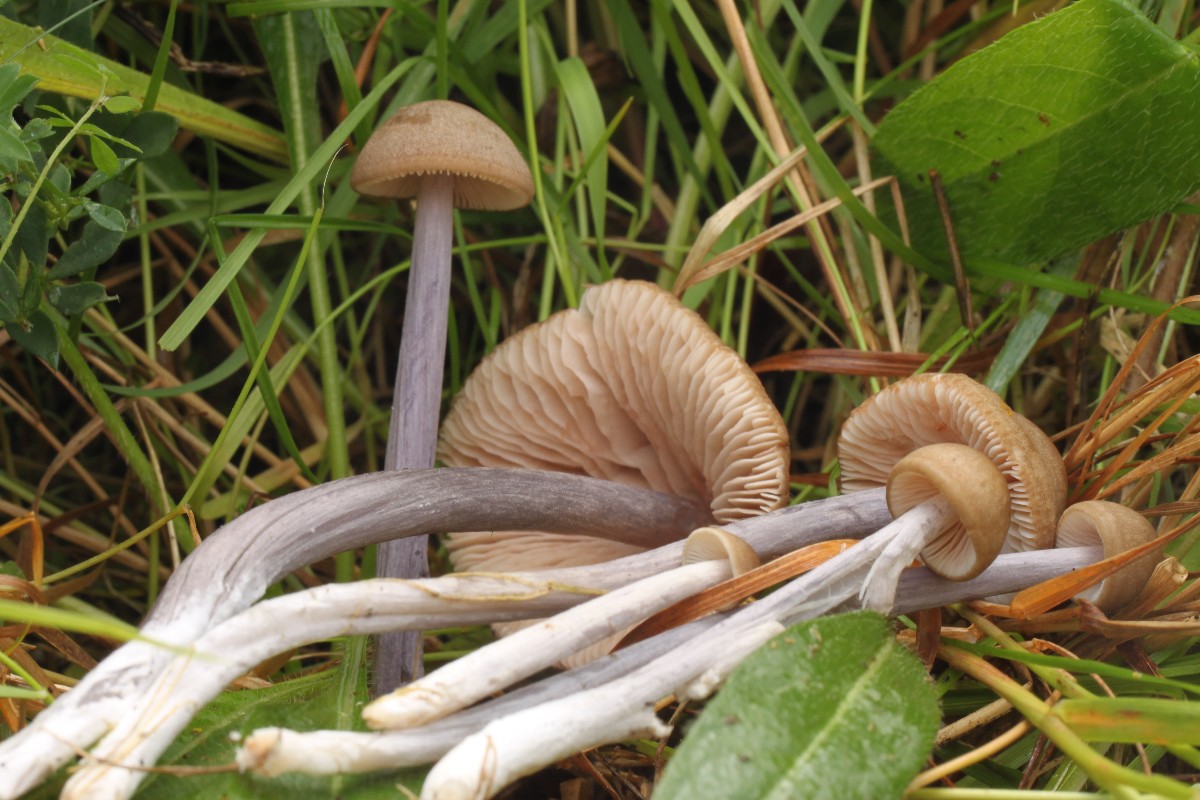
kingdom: Fungi
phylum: Basidiomycota
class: Agaricomycetes
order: Agaricales
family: Entolomataceae
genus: Entoloma
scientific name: Entoloma griseocyaneum
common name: gråblå rødblad
